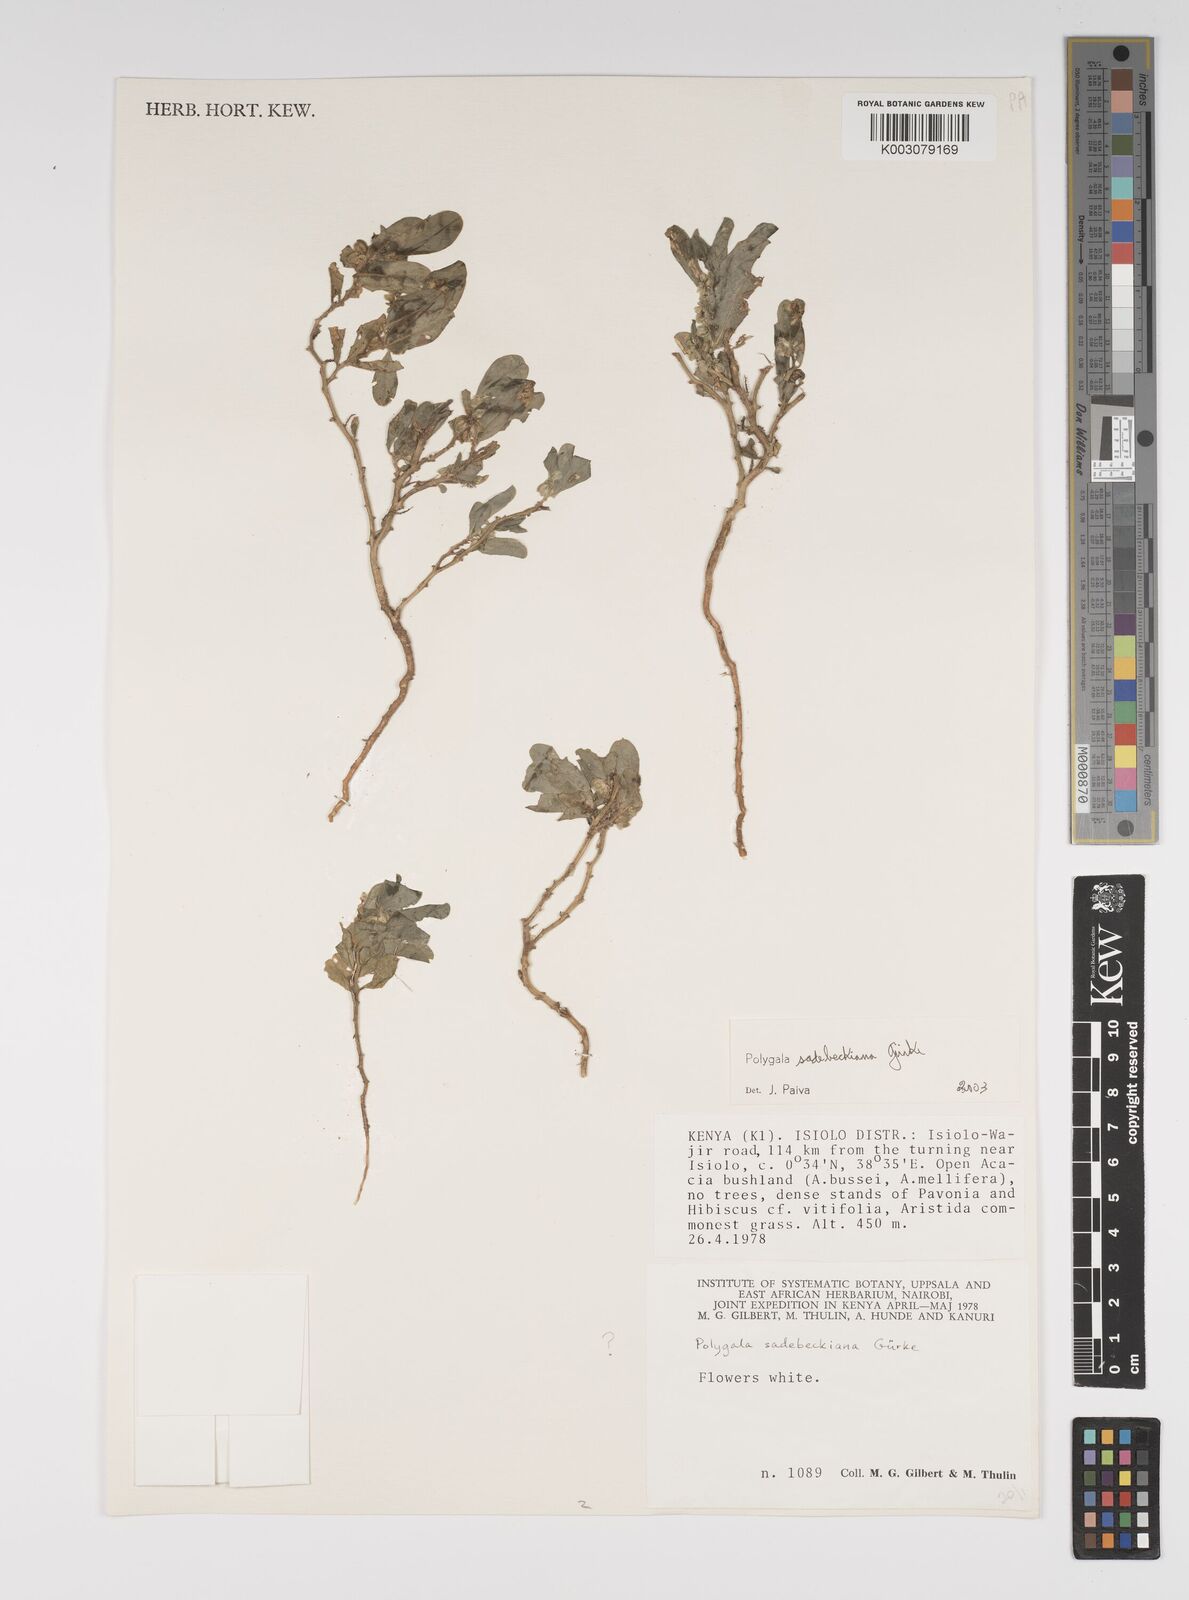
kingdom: Plantae
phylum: Tracheophyta
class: Magnoliopsida
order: Fabales
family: Polygalaceae
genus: Polygala
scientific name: Polygala sadebeckiana
